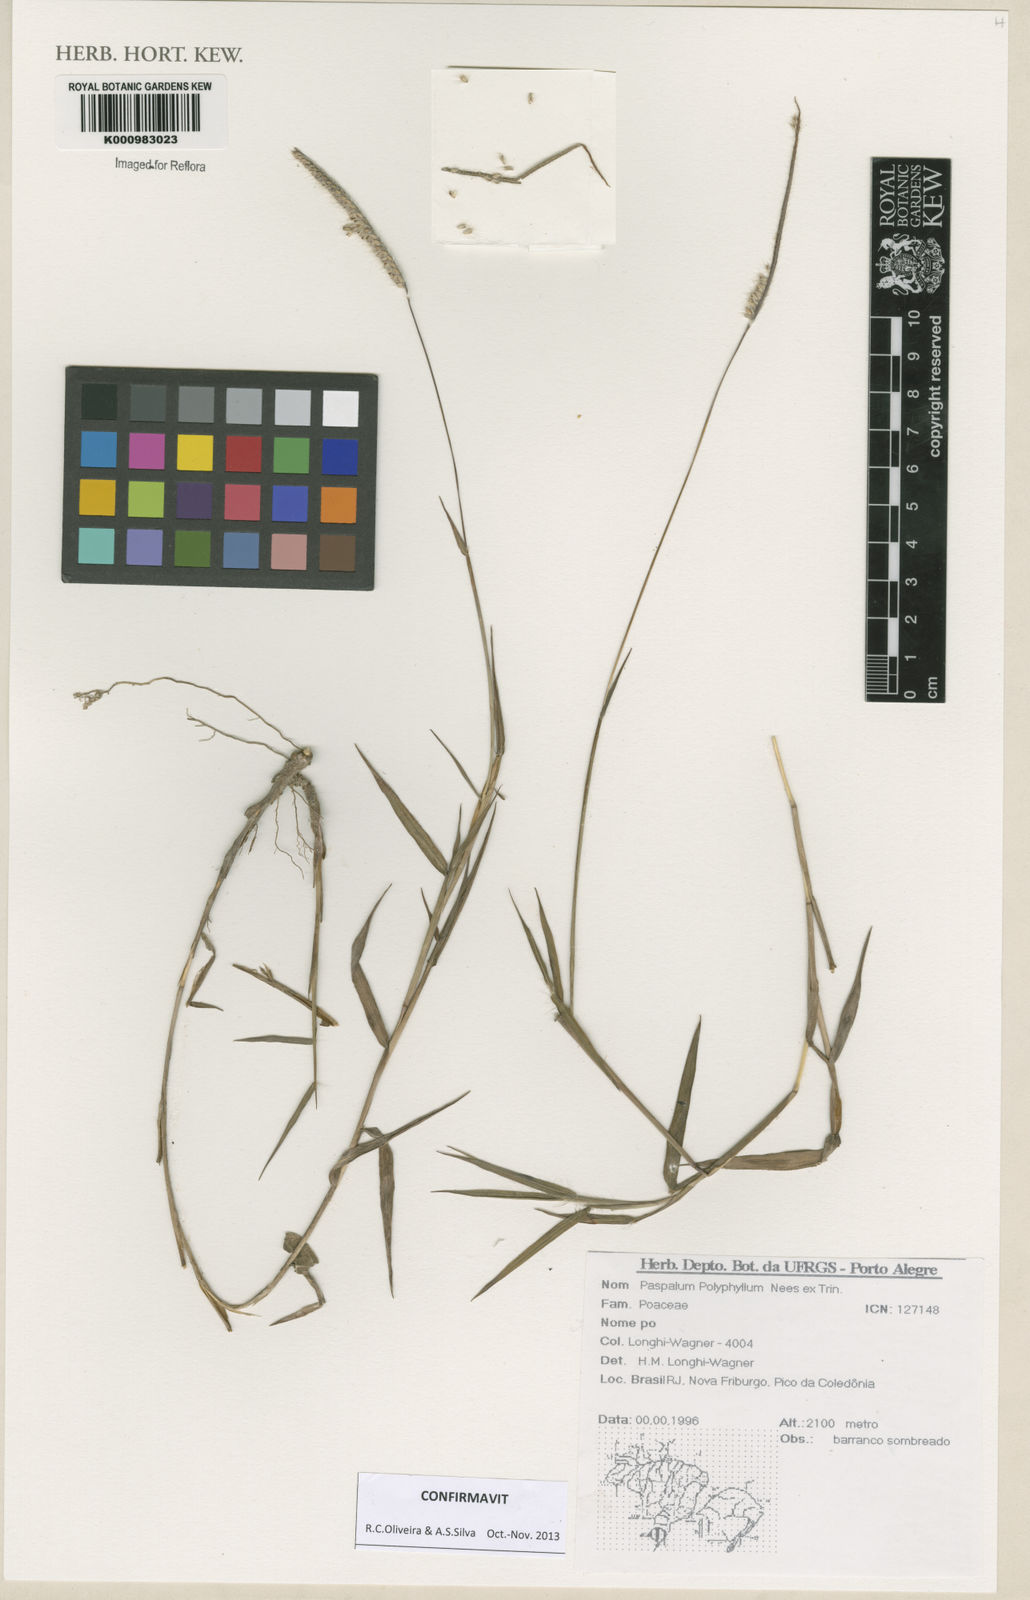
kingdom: Plantae
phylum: Tracheophyta
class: Liliopsida
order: Poales
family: Poaceae
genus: Paspalum
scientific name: Paspalum
